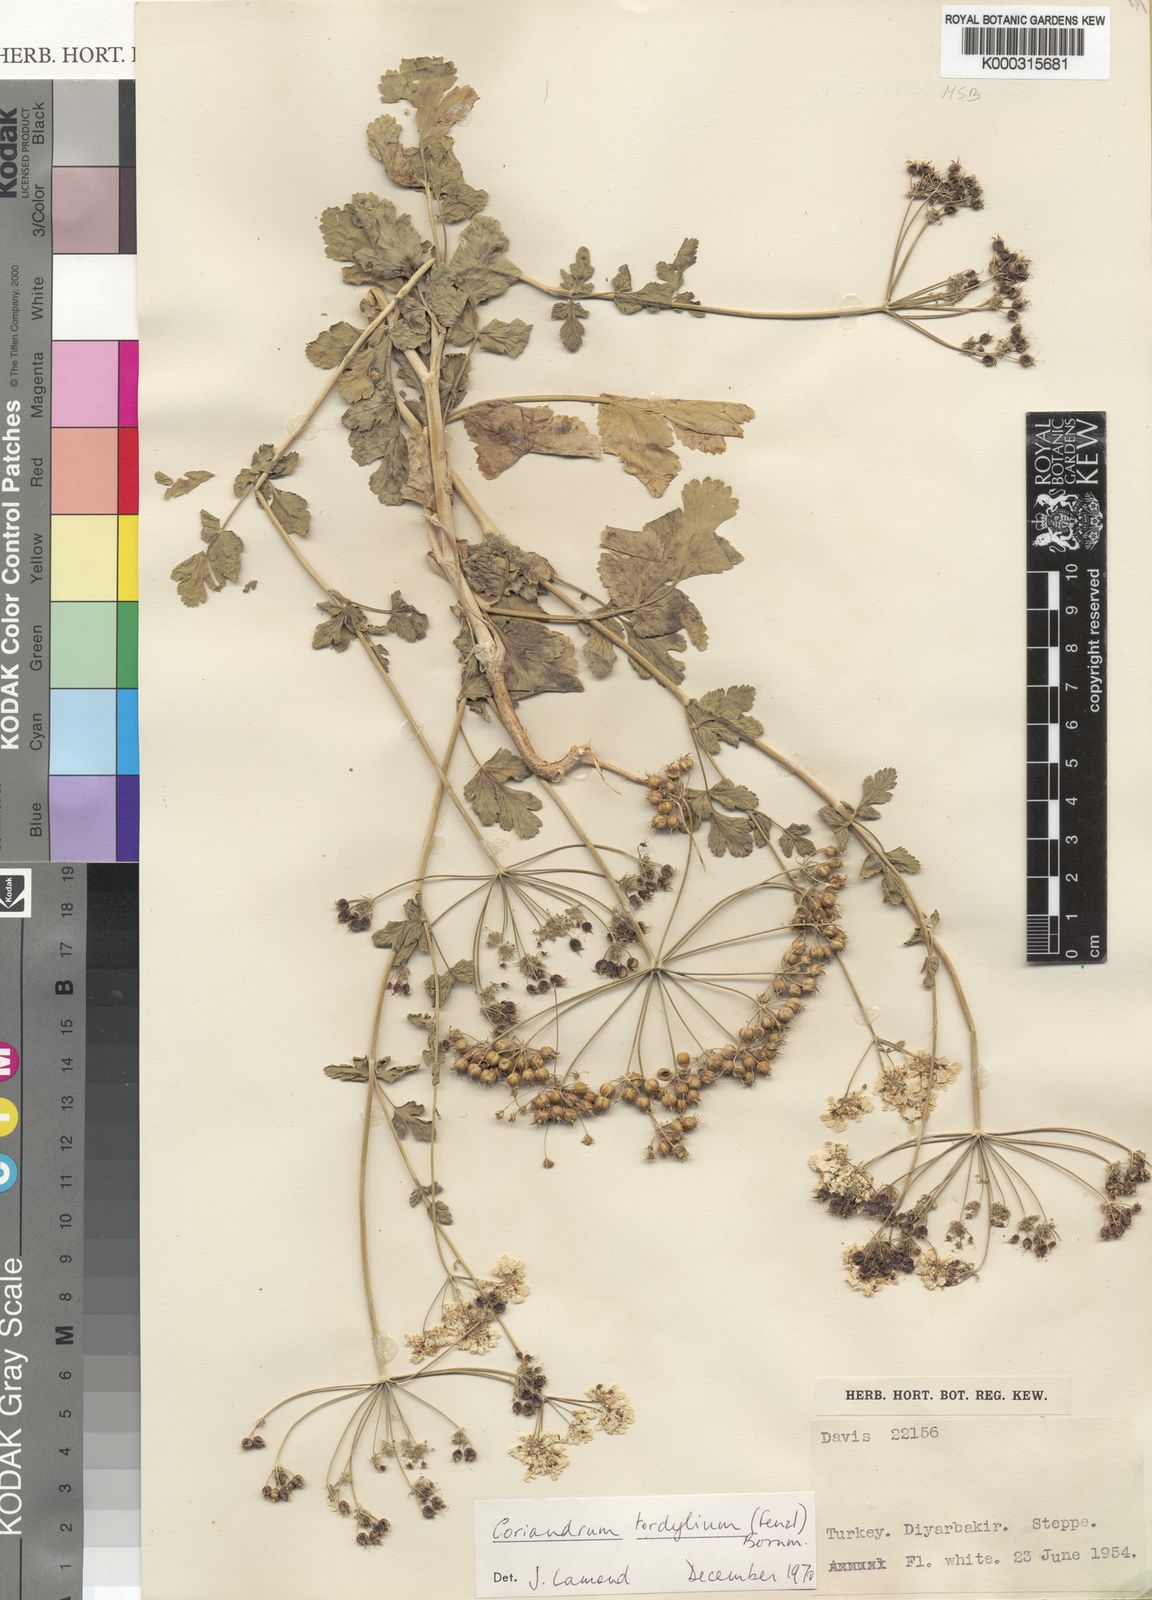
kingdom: Plantae
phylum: Tracheophyta
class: Magnoliopsida
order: Apiales
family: Apiaceae
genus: Coriandrum
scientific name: Coriandrum tordylium
